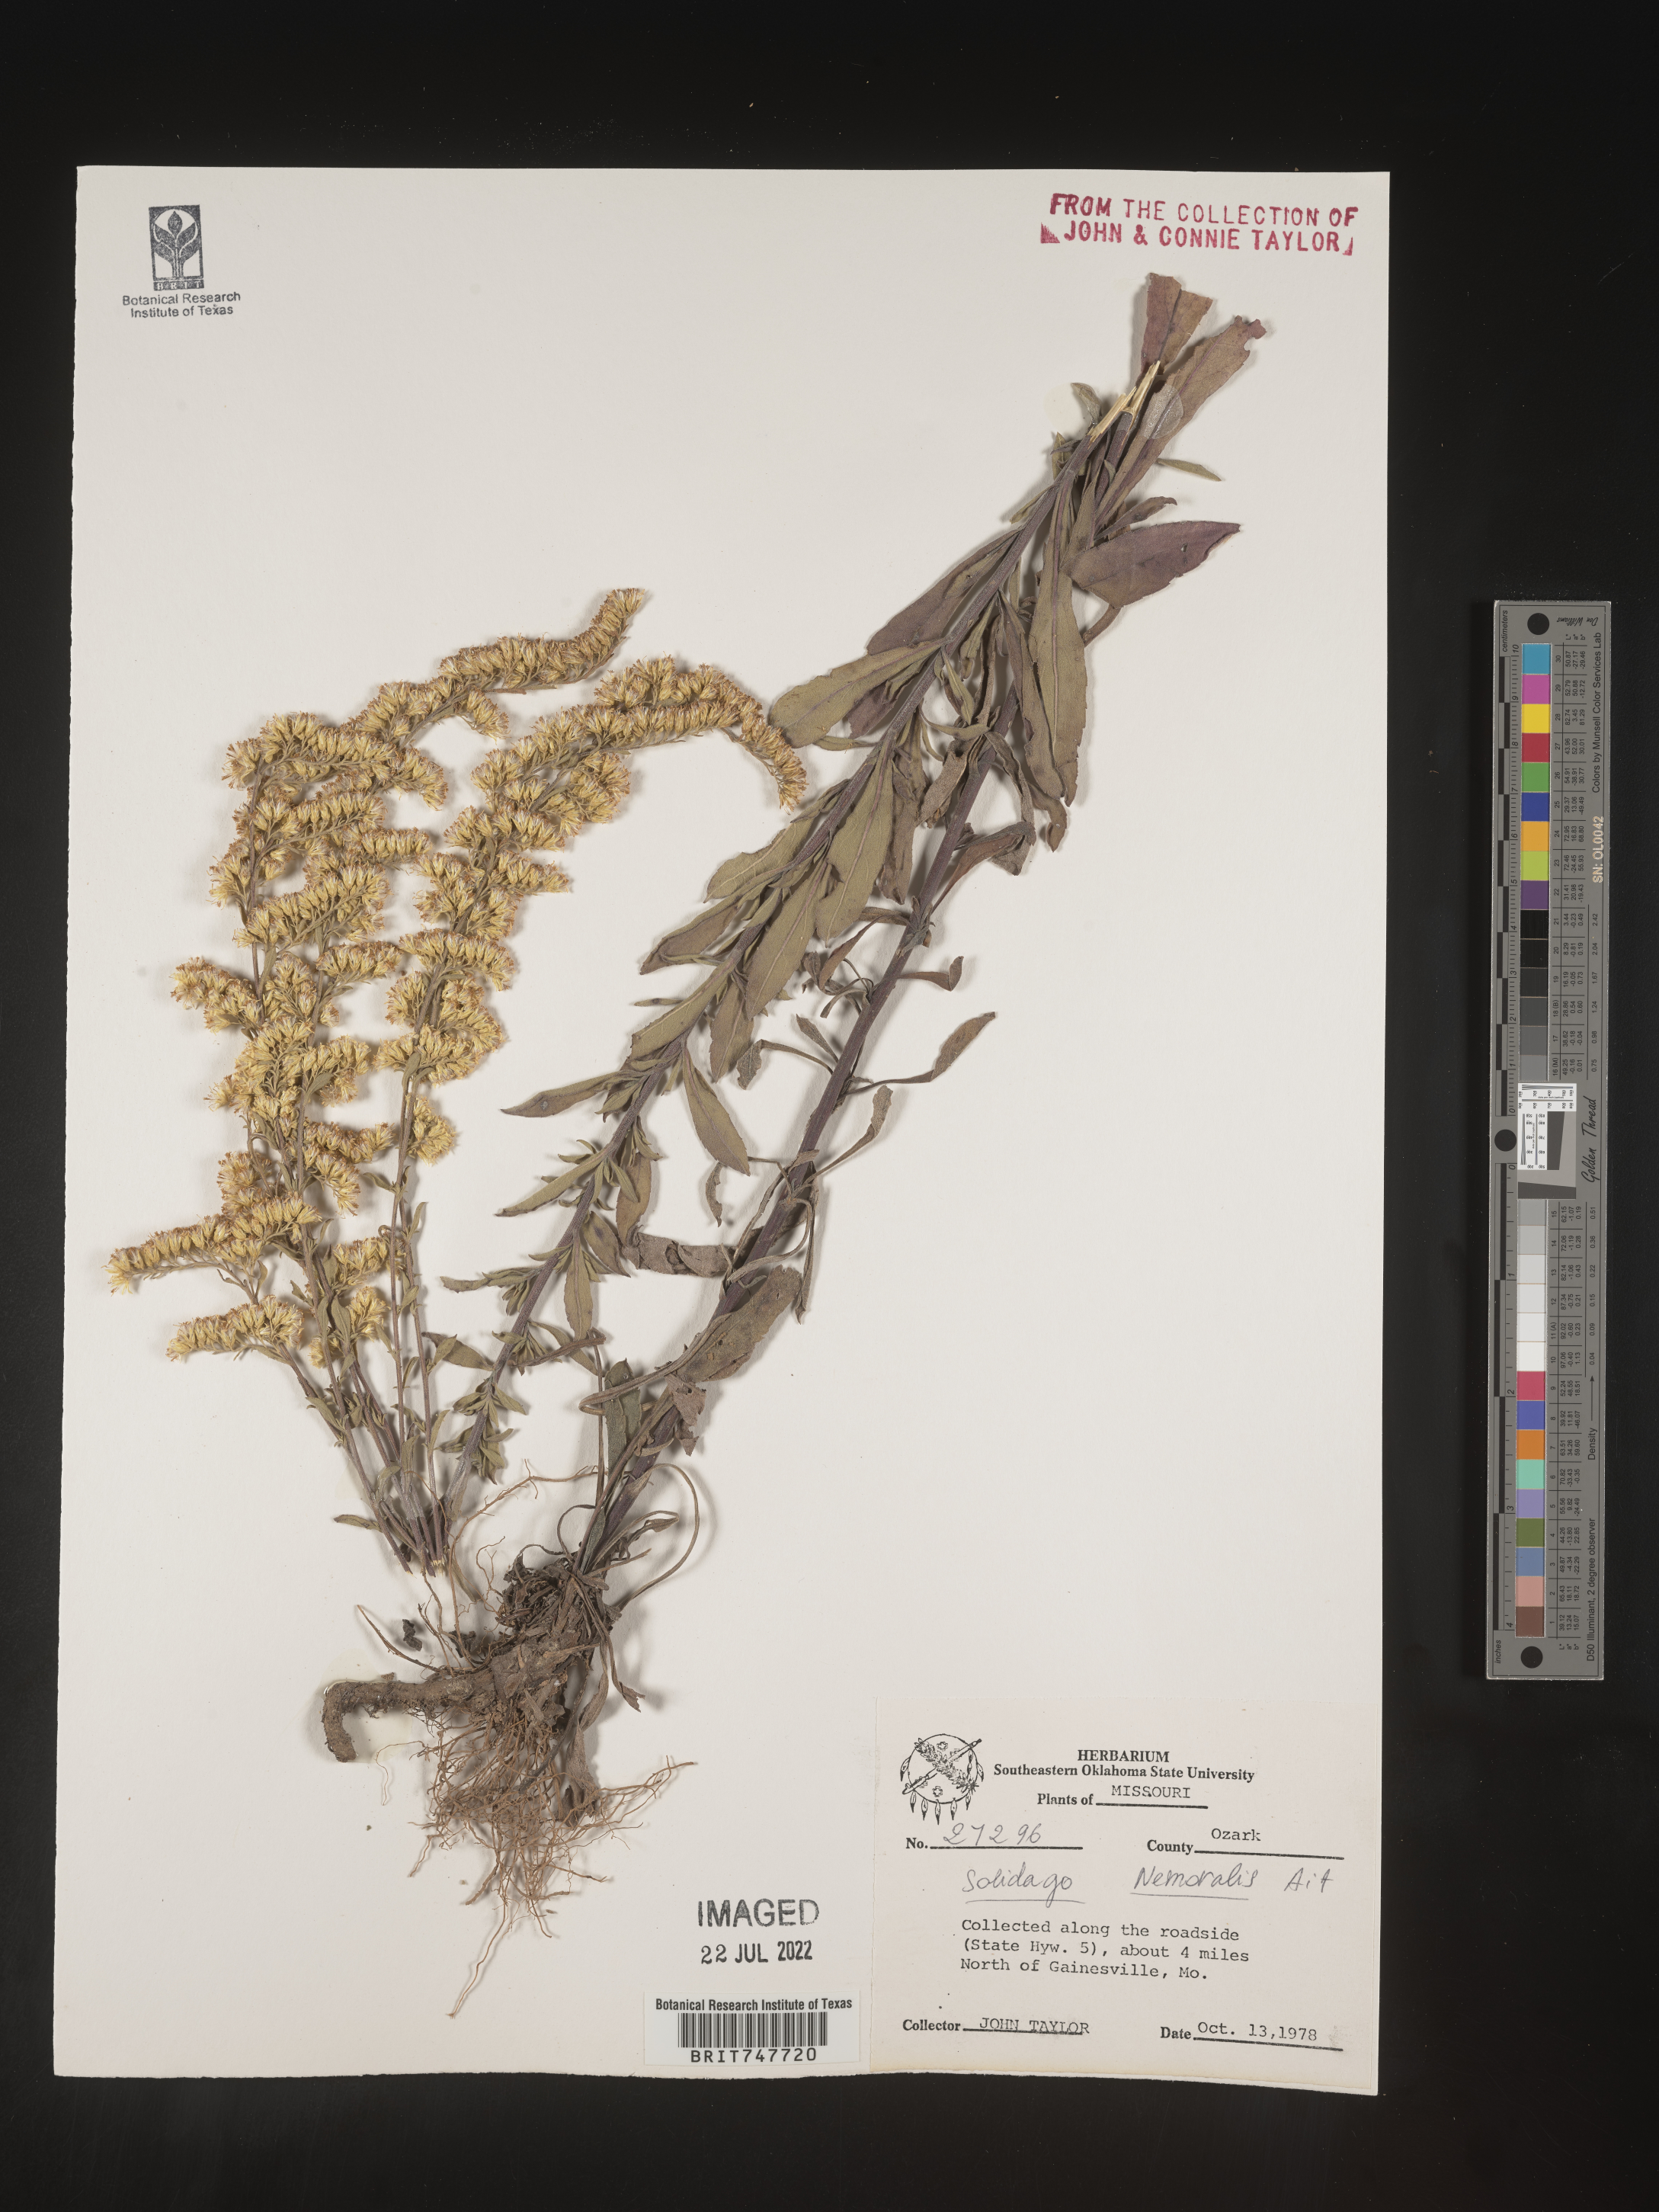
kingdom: Plantae
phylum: Tracheophyta
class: Magnoliopsida
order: Asterales
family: Asteraceae
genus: Solidago
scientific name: Solidago nemoralis
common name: Grey goldenrod
